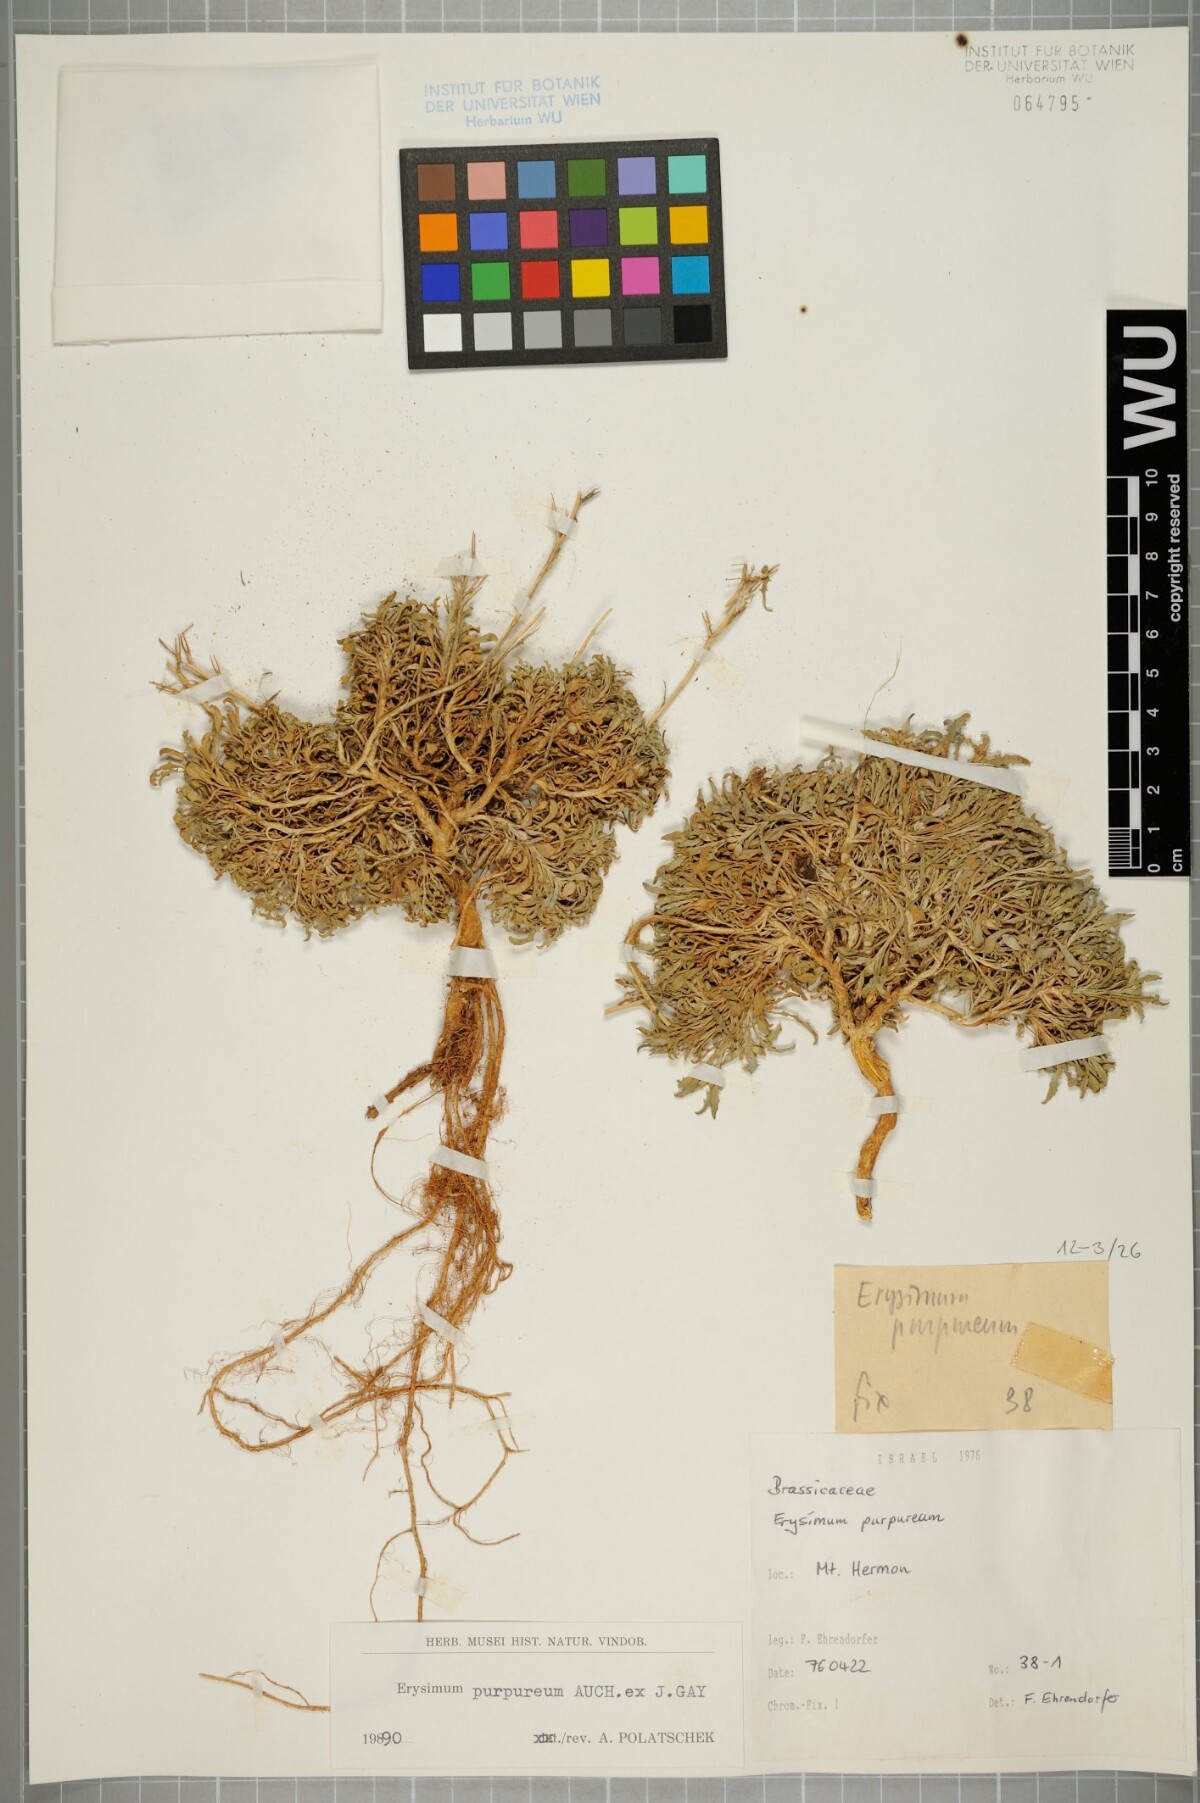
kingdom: Plantae
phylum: Tracheophyta
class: Magnoliopsida
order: Brassicales
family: Brassicaceae
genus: Erysimum
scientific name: Erysimum purpureum
